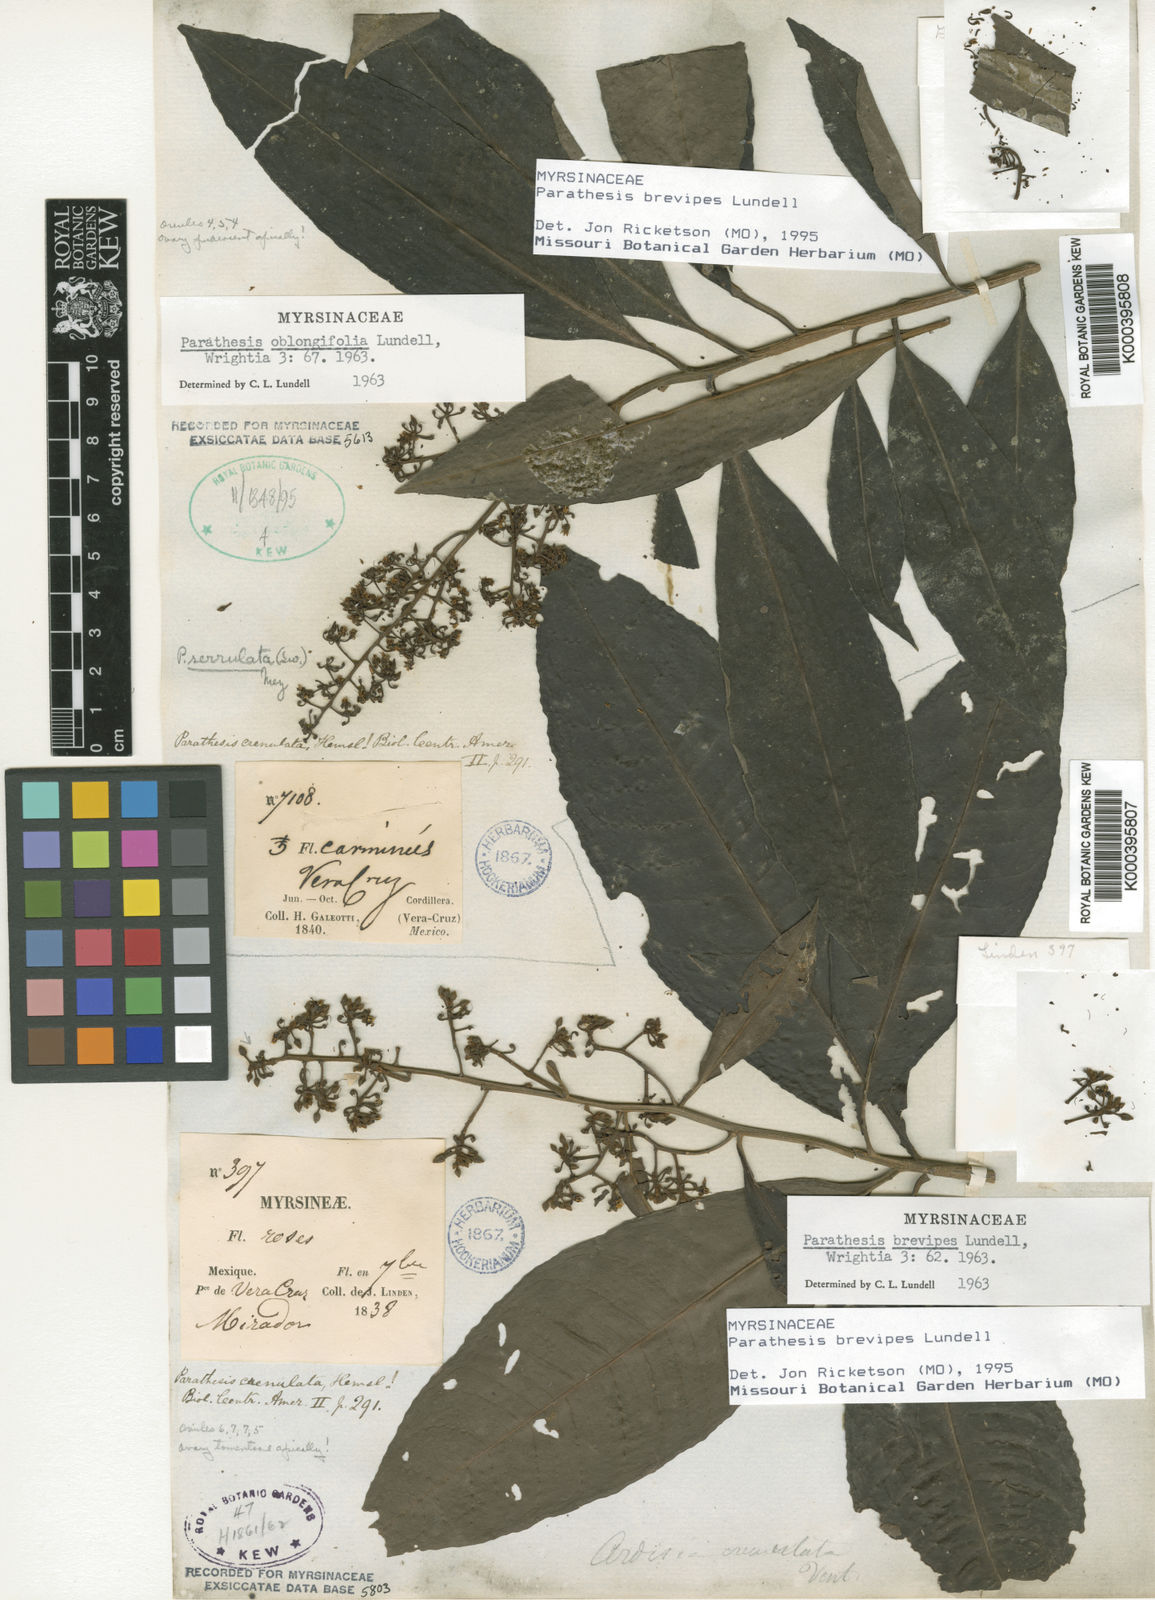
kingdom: Plantae
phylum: Tracheophyta
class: Magnoliopsida
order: Ericales
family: Primulaceae
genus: Parathesis
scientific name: Parathesis donnell-smithii
